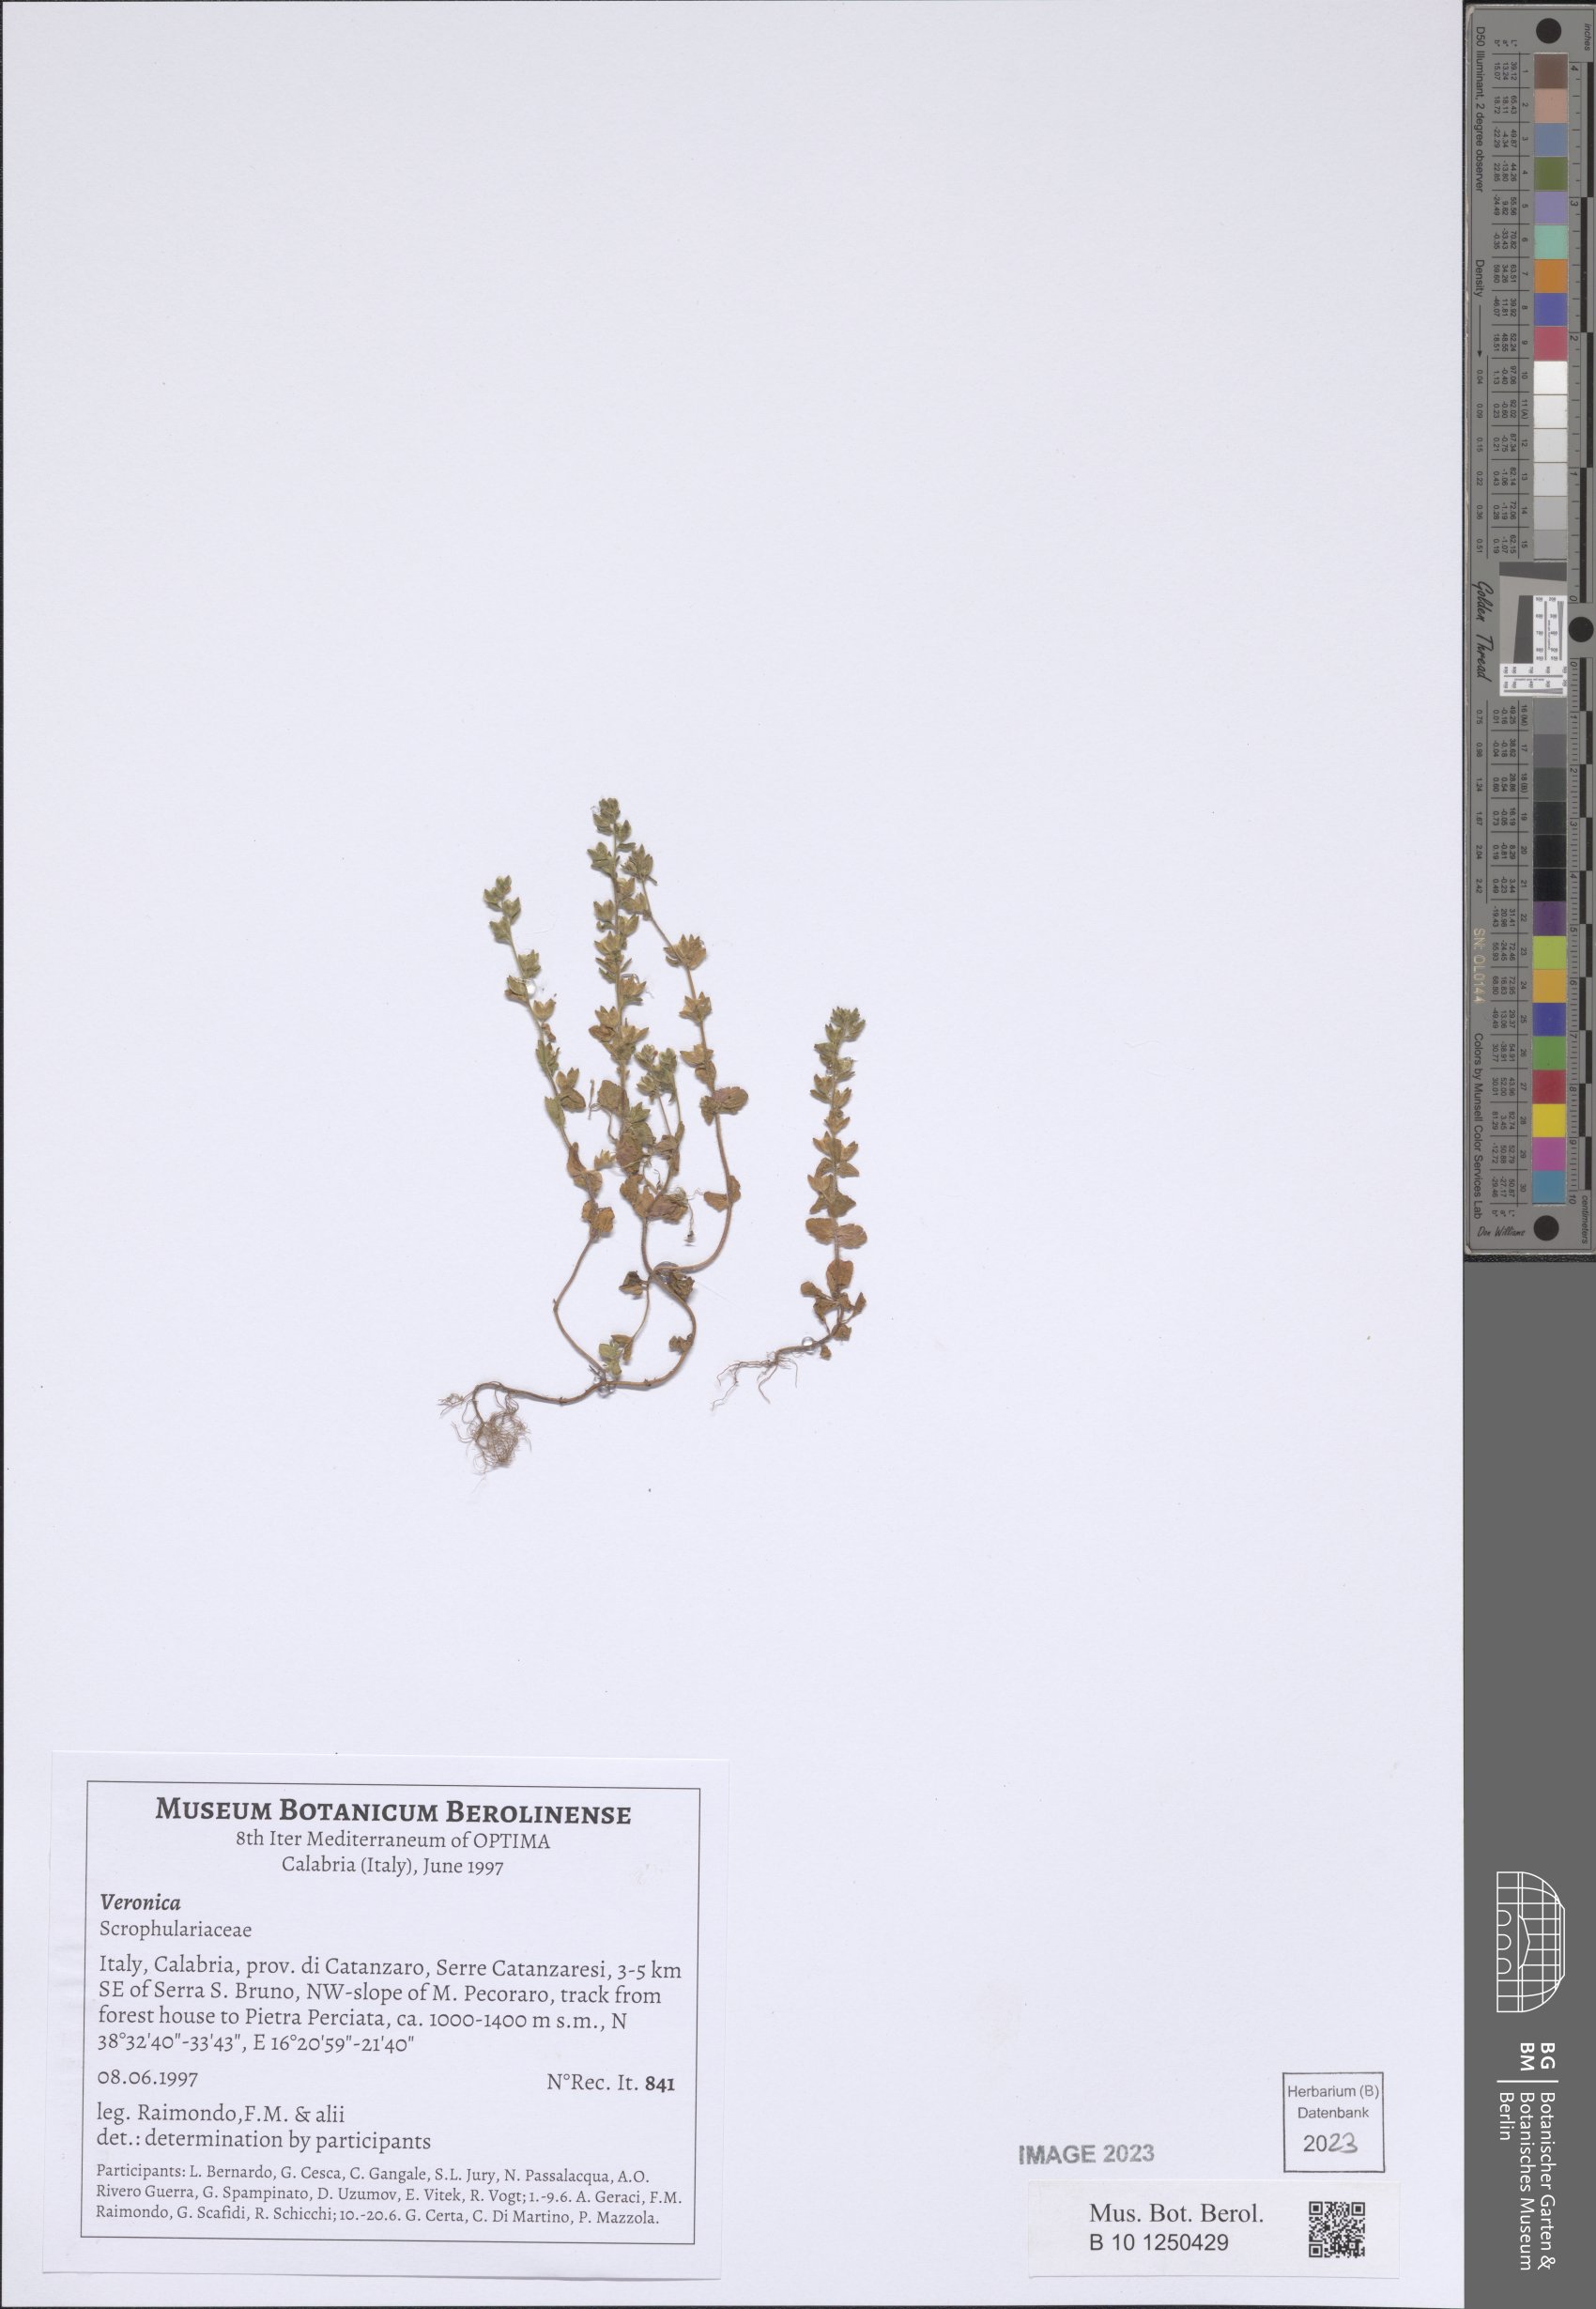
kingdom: Plantae
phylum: Tracheophyta
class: Magnoliopsida
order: Lamiales
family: Plantaginaceae
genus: Veronica
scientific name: Veronica
